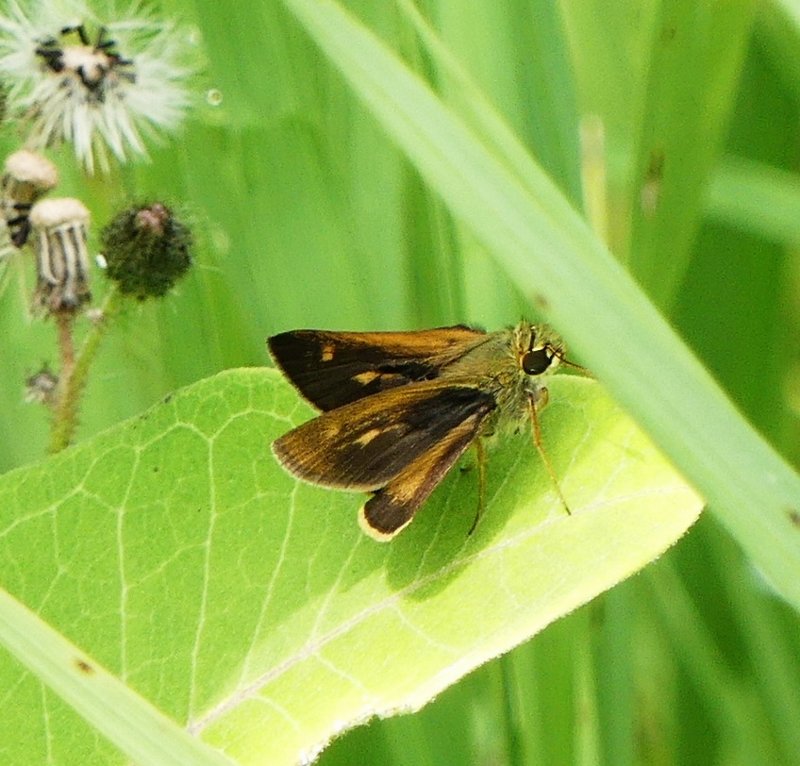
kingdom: Animalia
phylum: Arthropoda
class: Insecta
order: Lepidoptera
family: Hesperiidae
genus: Polites
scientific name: Polites egeremet
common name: Northern Broken-Dash
